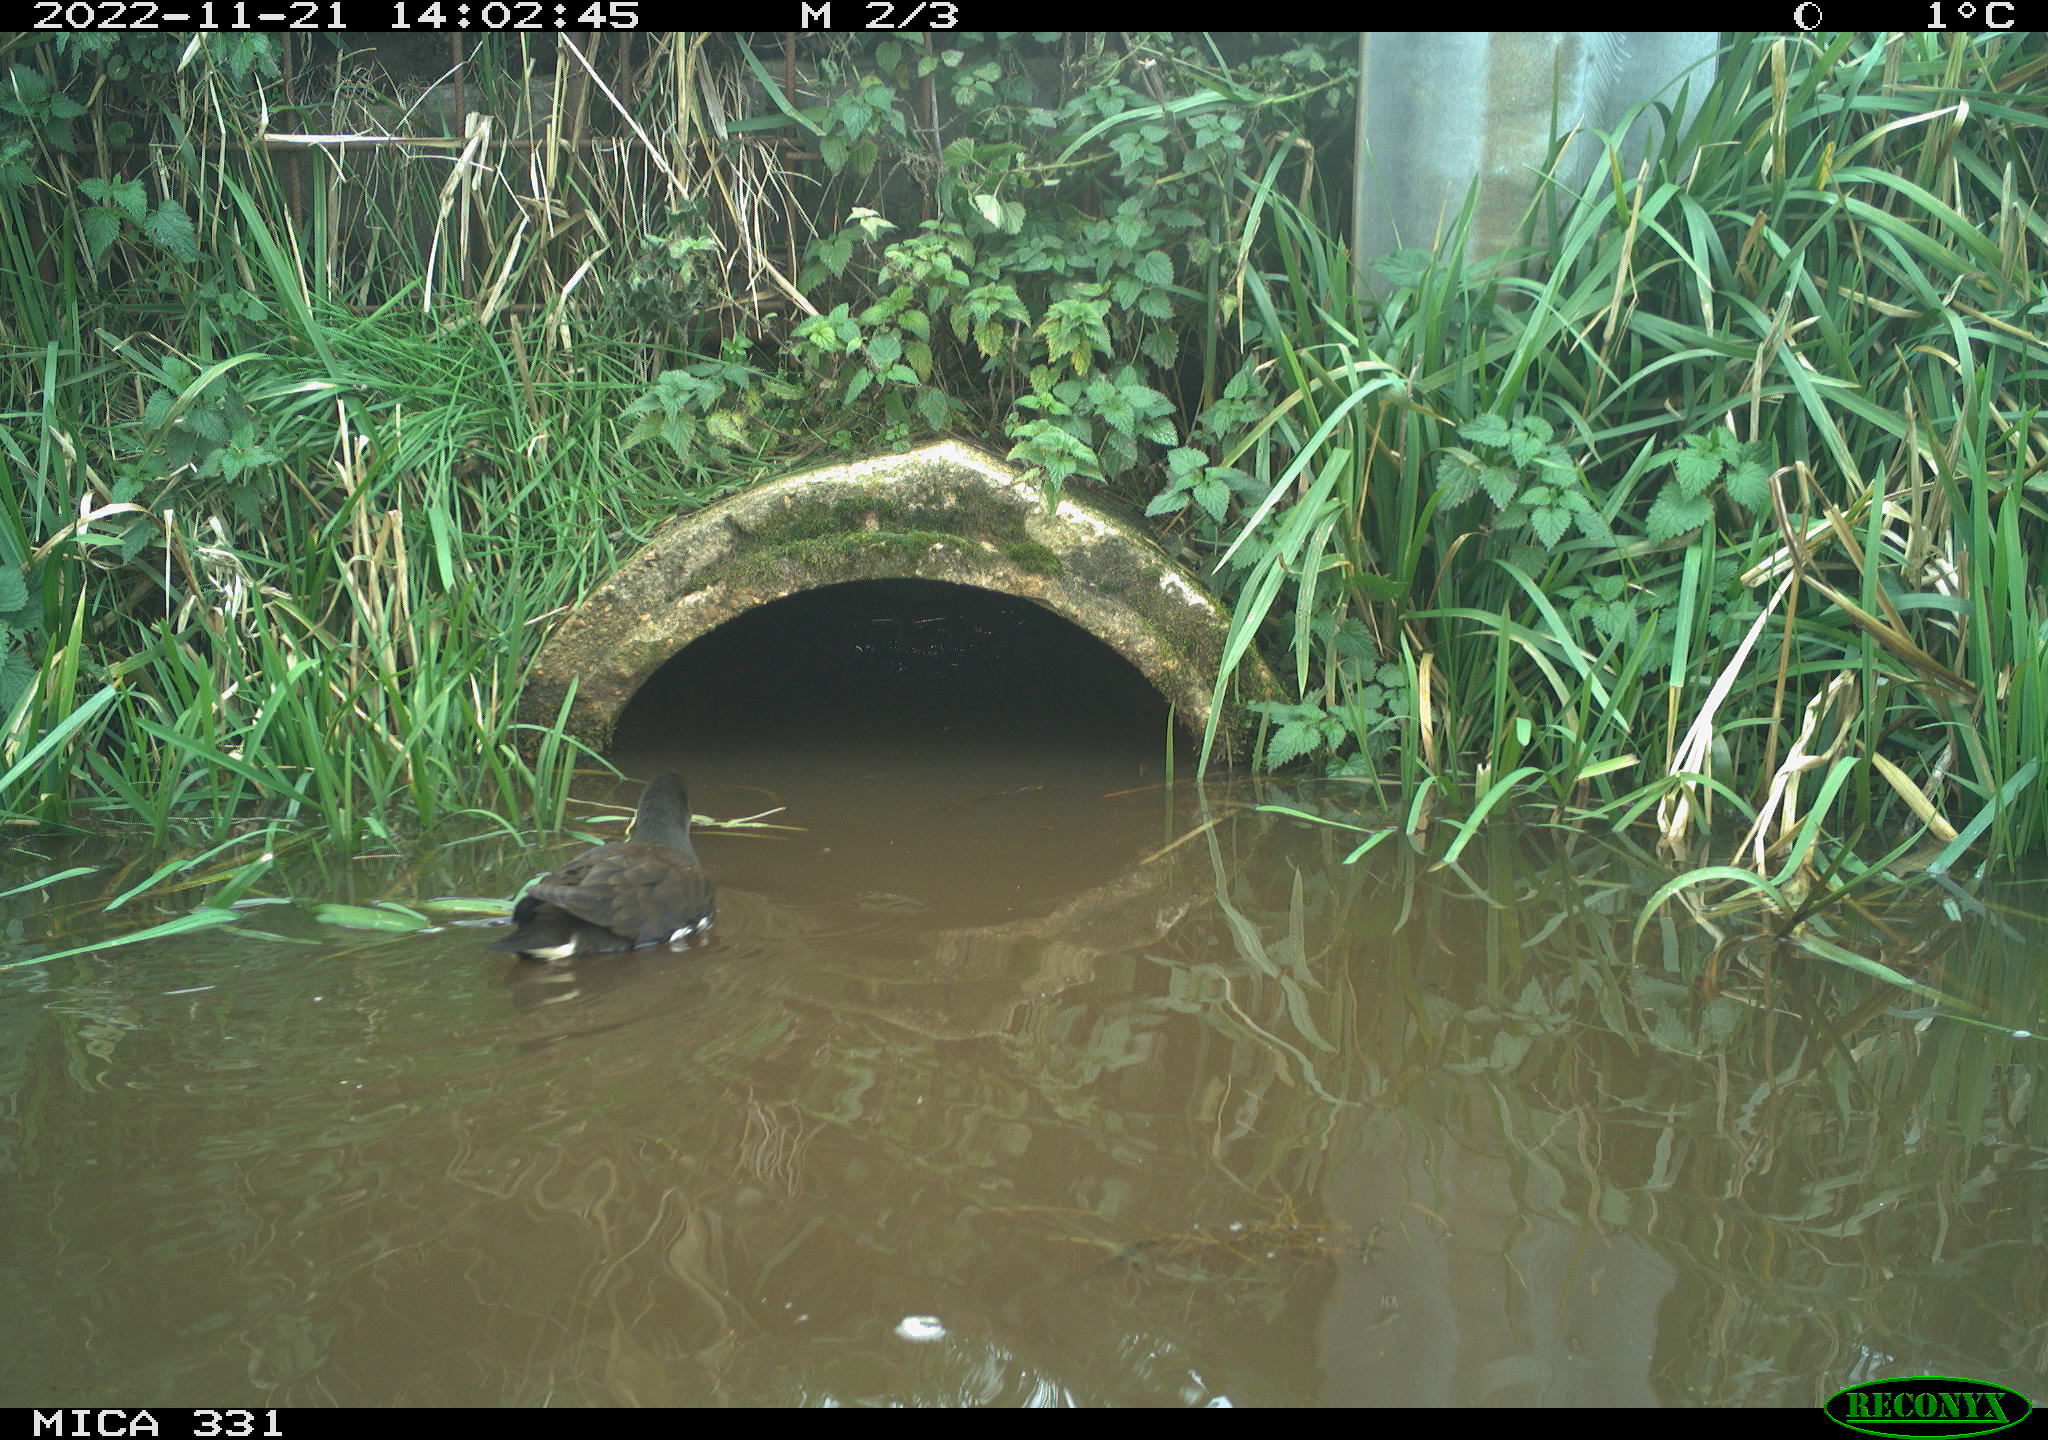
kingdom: Animalia
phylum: Chordata
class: Aves
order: Gruiformes
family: Rallidae
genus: Gallinula
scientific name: Gallinula chloropus
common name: Common moorhen
